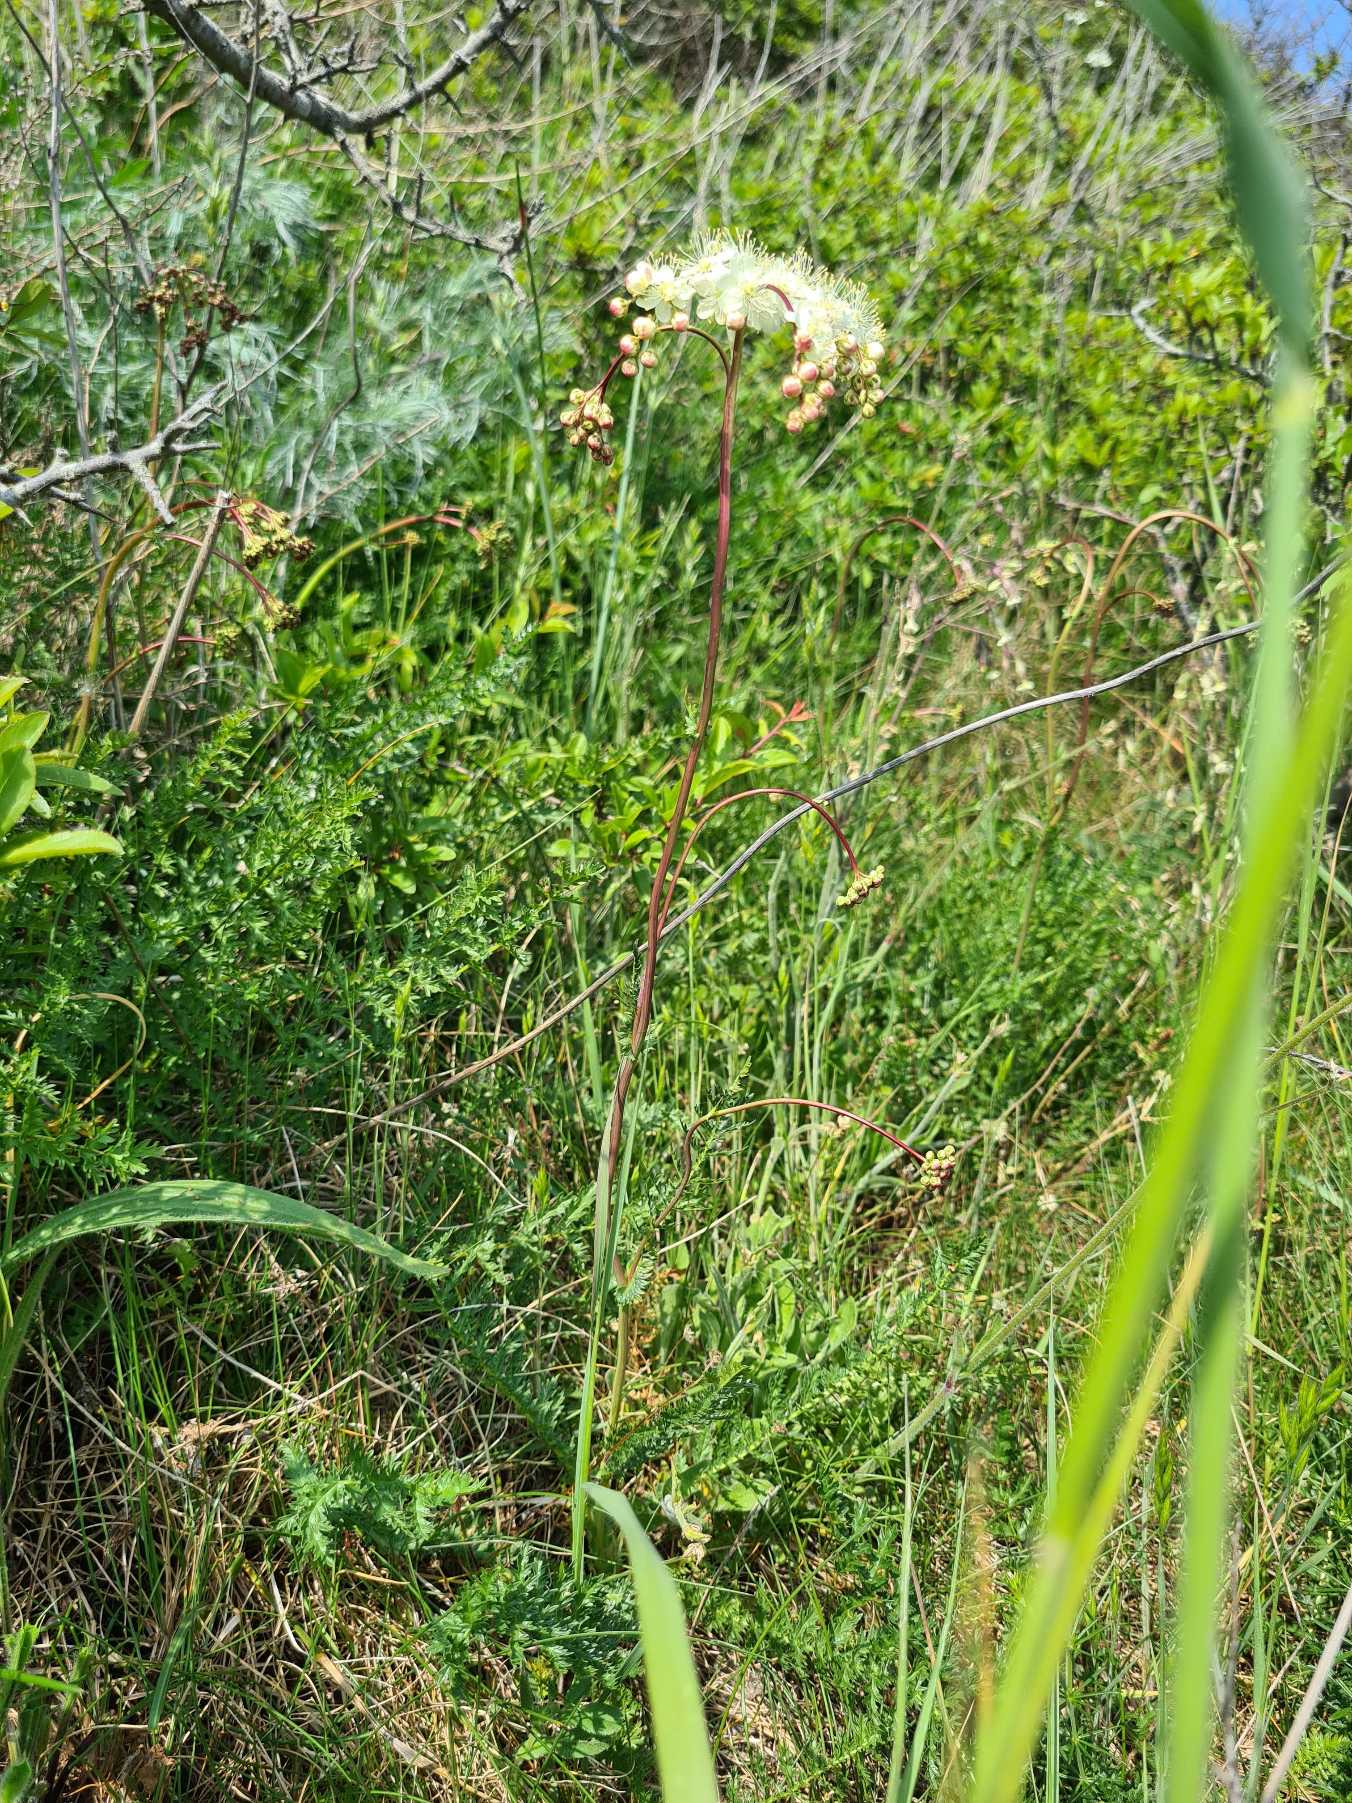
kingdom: Plantae
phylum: Tracheophyta
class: Magnoliopsida
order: Rosales
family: Rosaceae
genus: Filipendula
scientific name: Filipendula vulgaris
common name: Knoldet mjødurt
